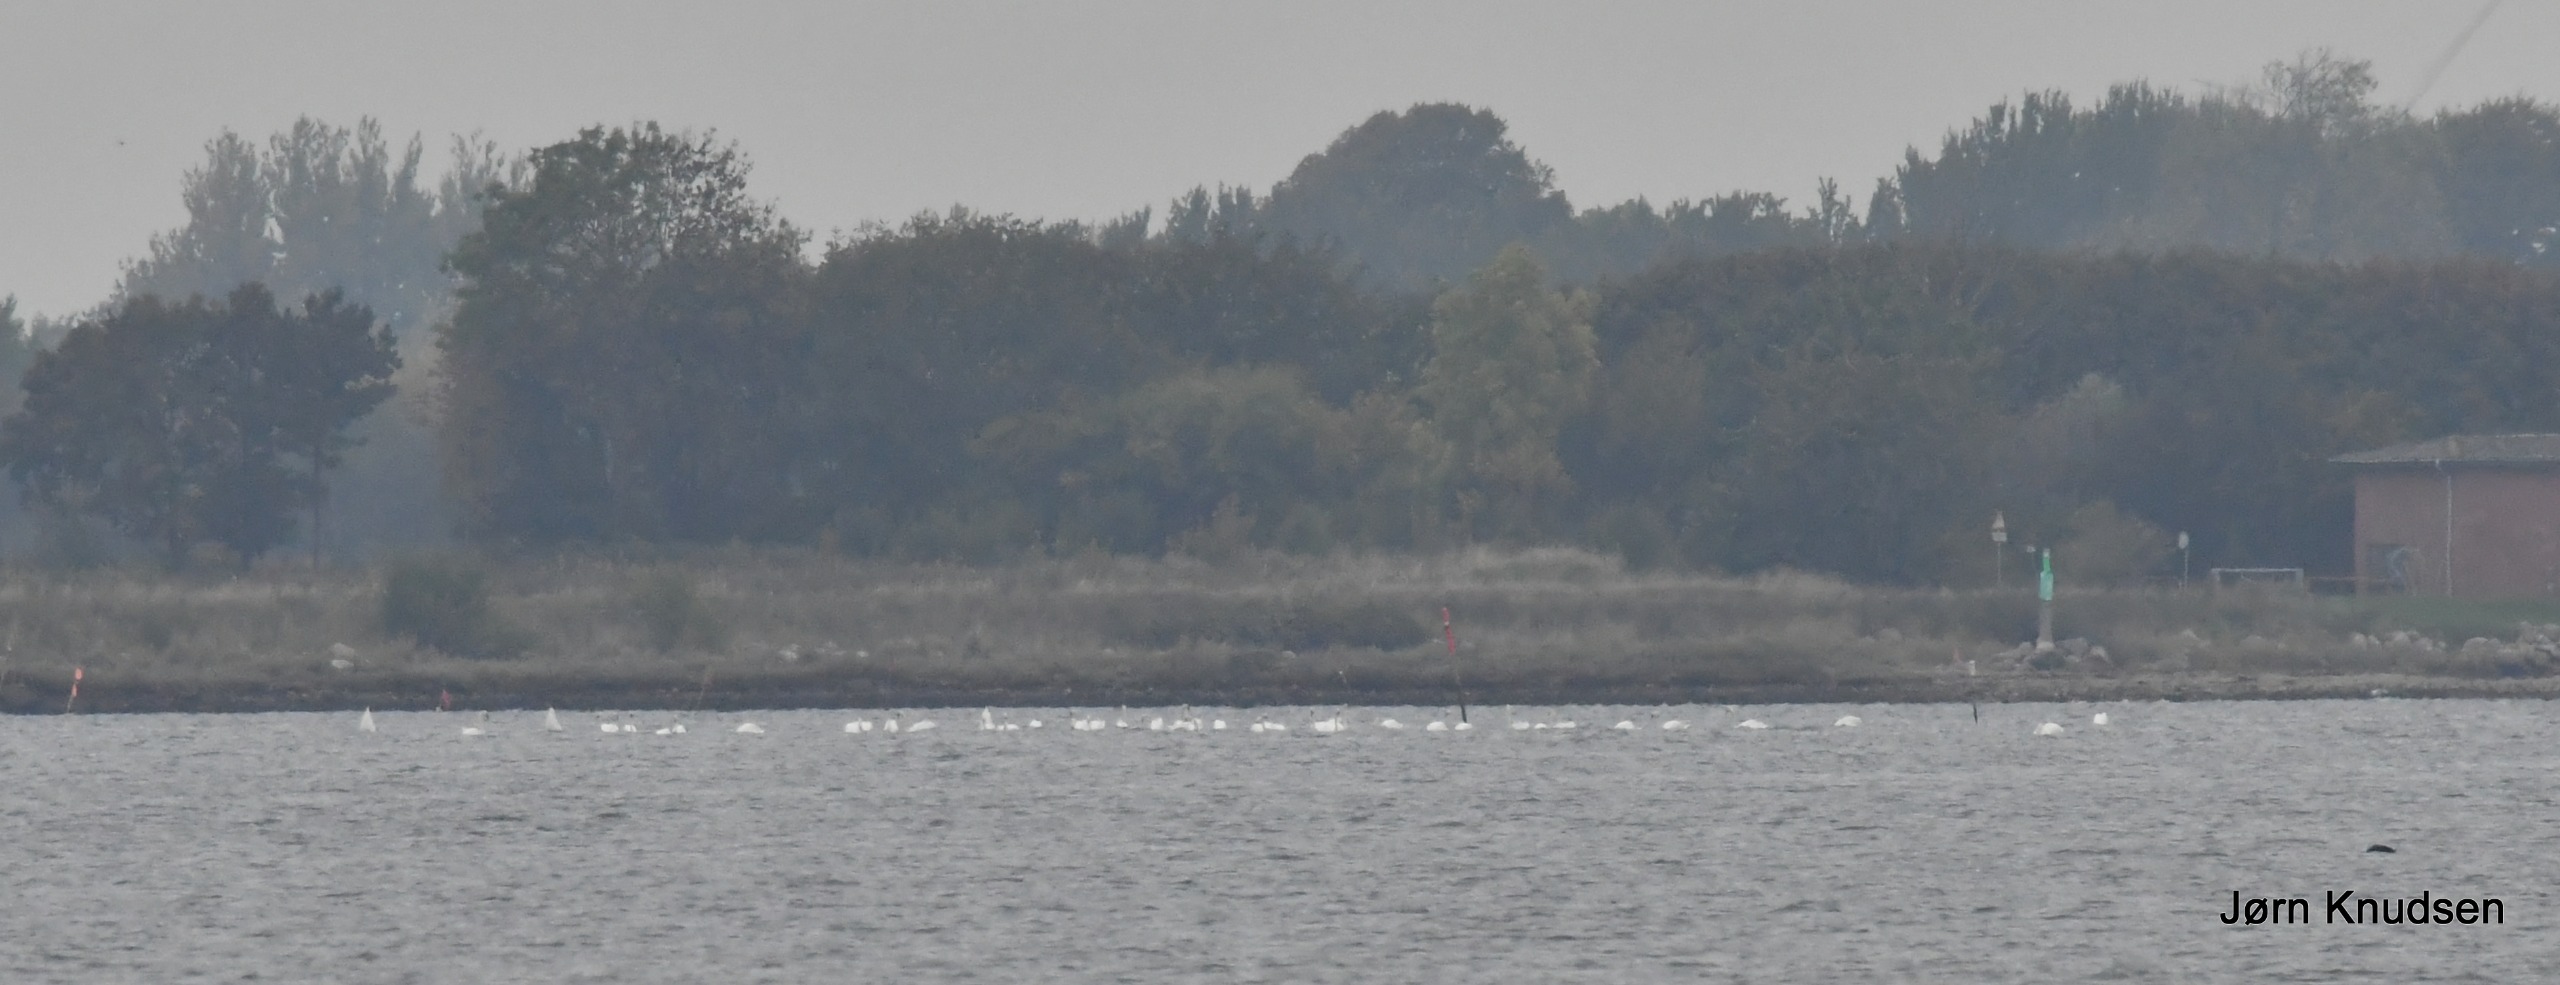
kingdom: Animalia
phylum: Chordata
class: Aves
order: Anseriformes
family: Anatidae
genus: Cygnus
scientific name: Cygnus olor
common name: Knopsvane
